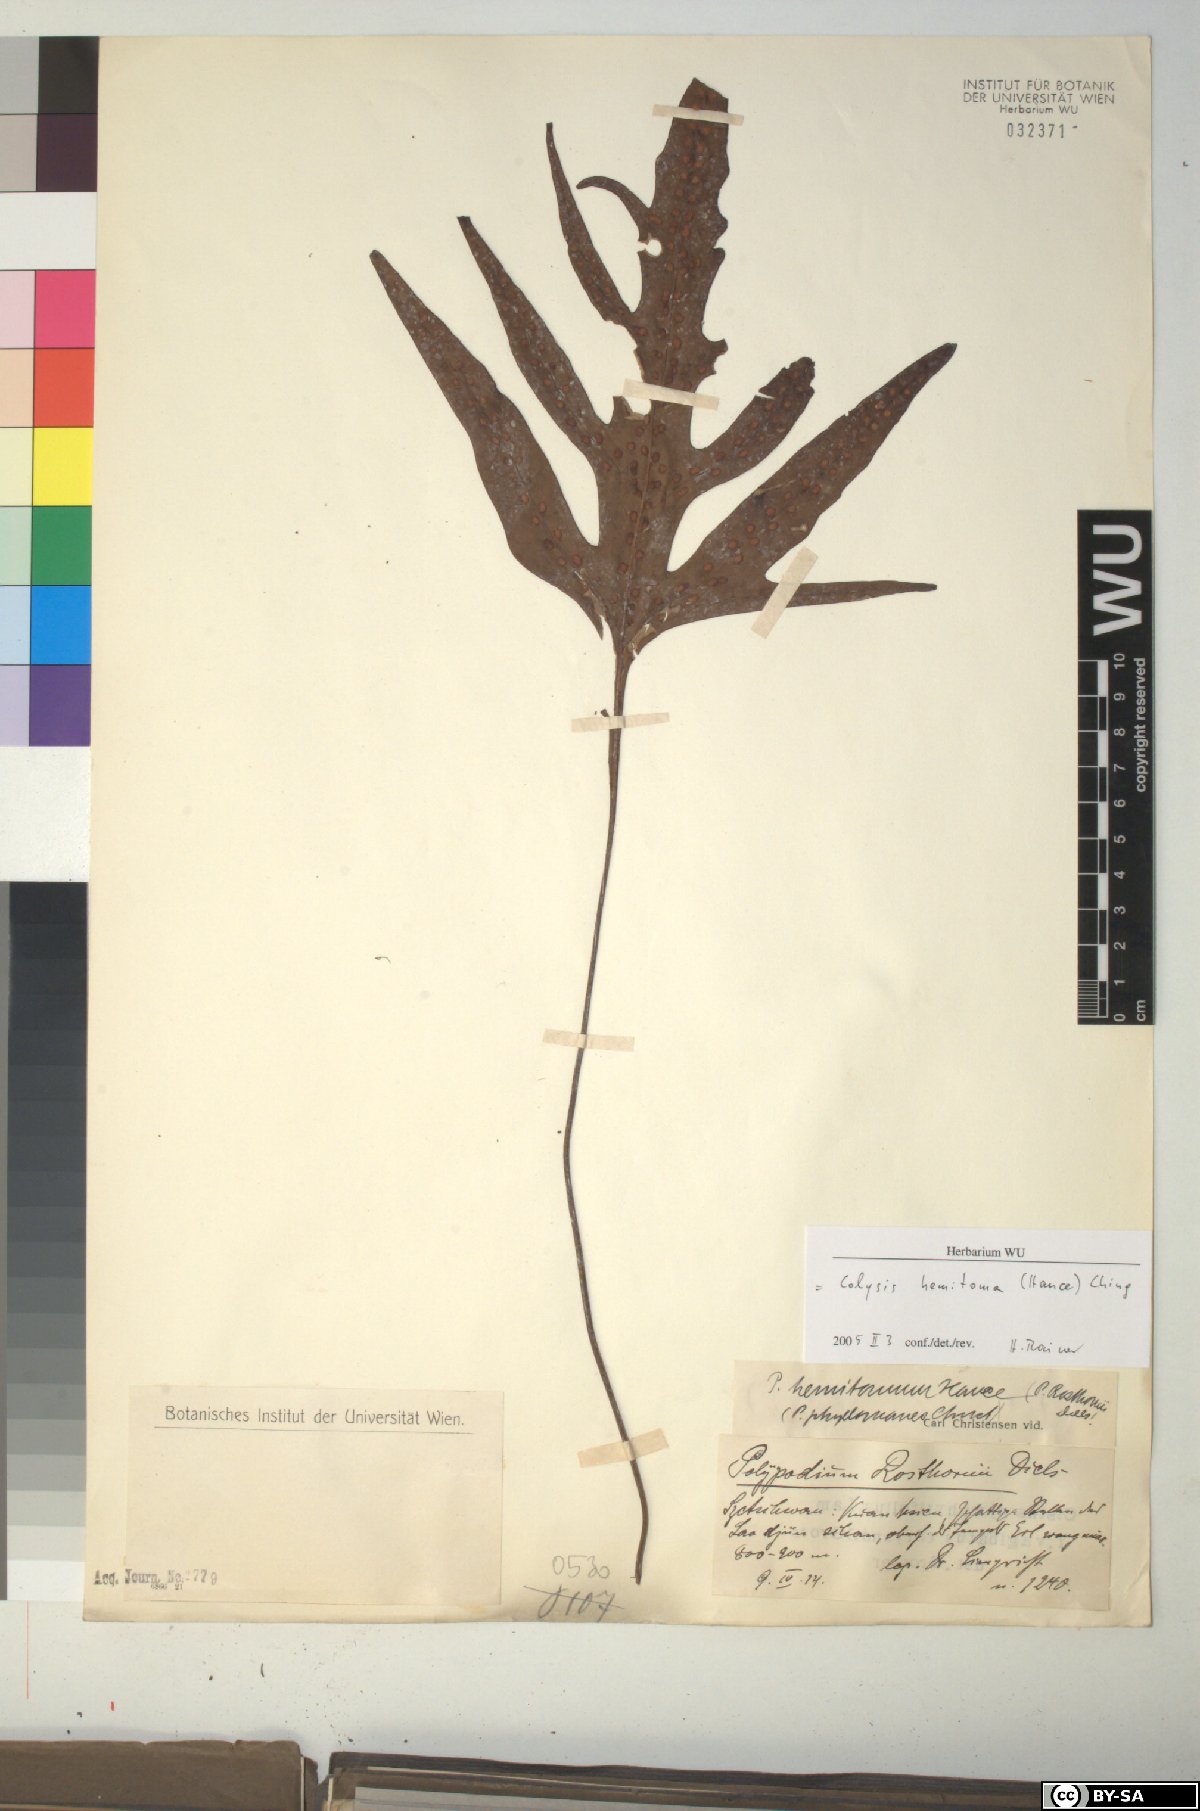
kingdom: Plantae
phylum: Tracheophyta
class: Polypodiopsida
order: Polypodiales
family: Polypodiaceae
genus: Leptochilus
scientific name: Leptochilus pedunculatus
